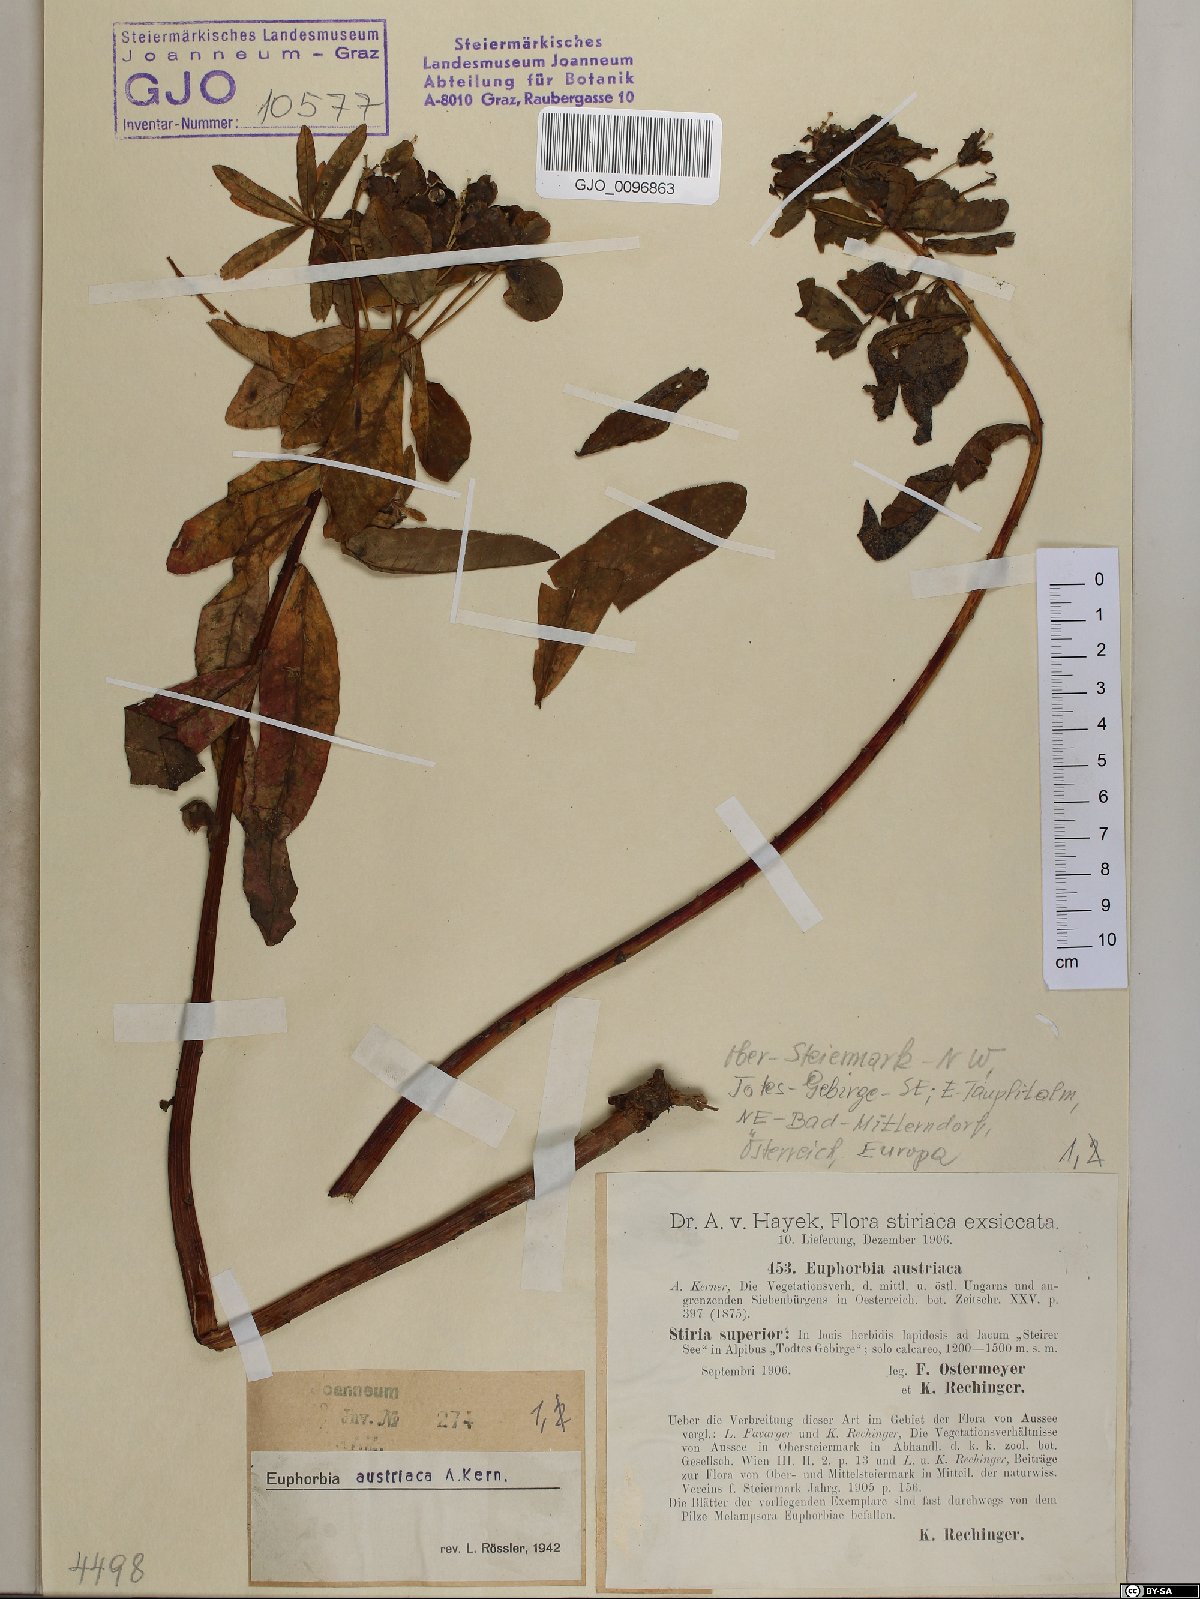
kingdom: Plantae
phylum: Tracheophyta
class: Magnoliopsida
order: Malpighiales
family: Euphorbiaceae
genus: Euphorbia
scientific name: Euphorbia austriaca
